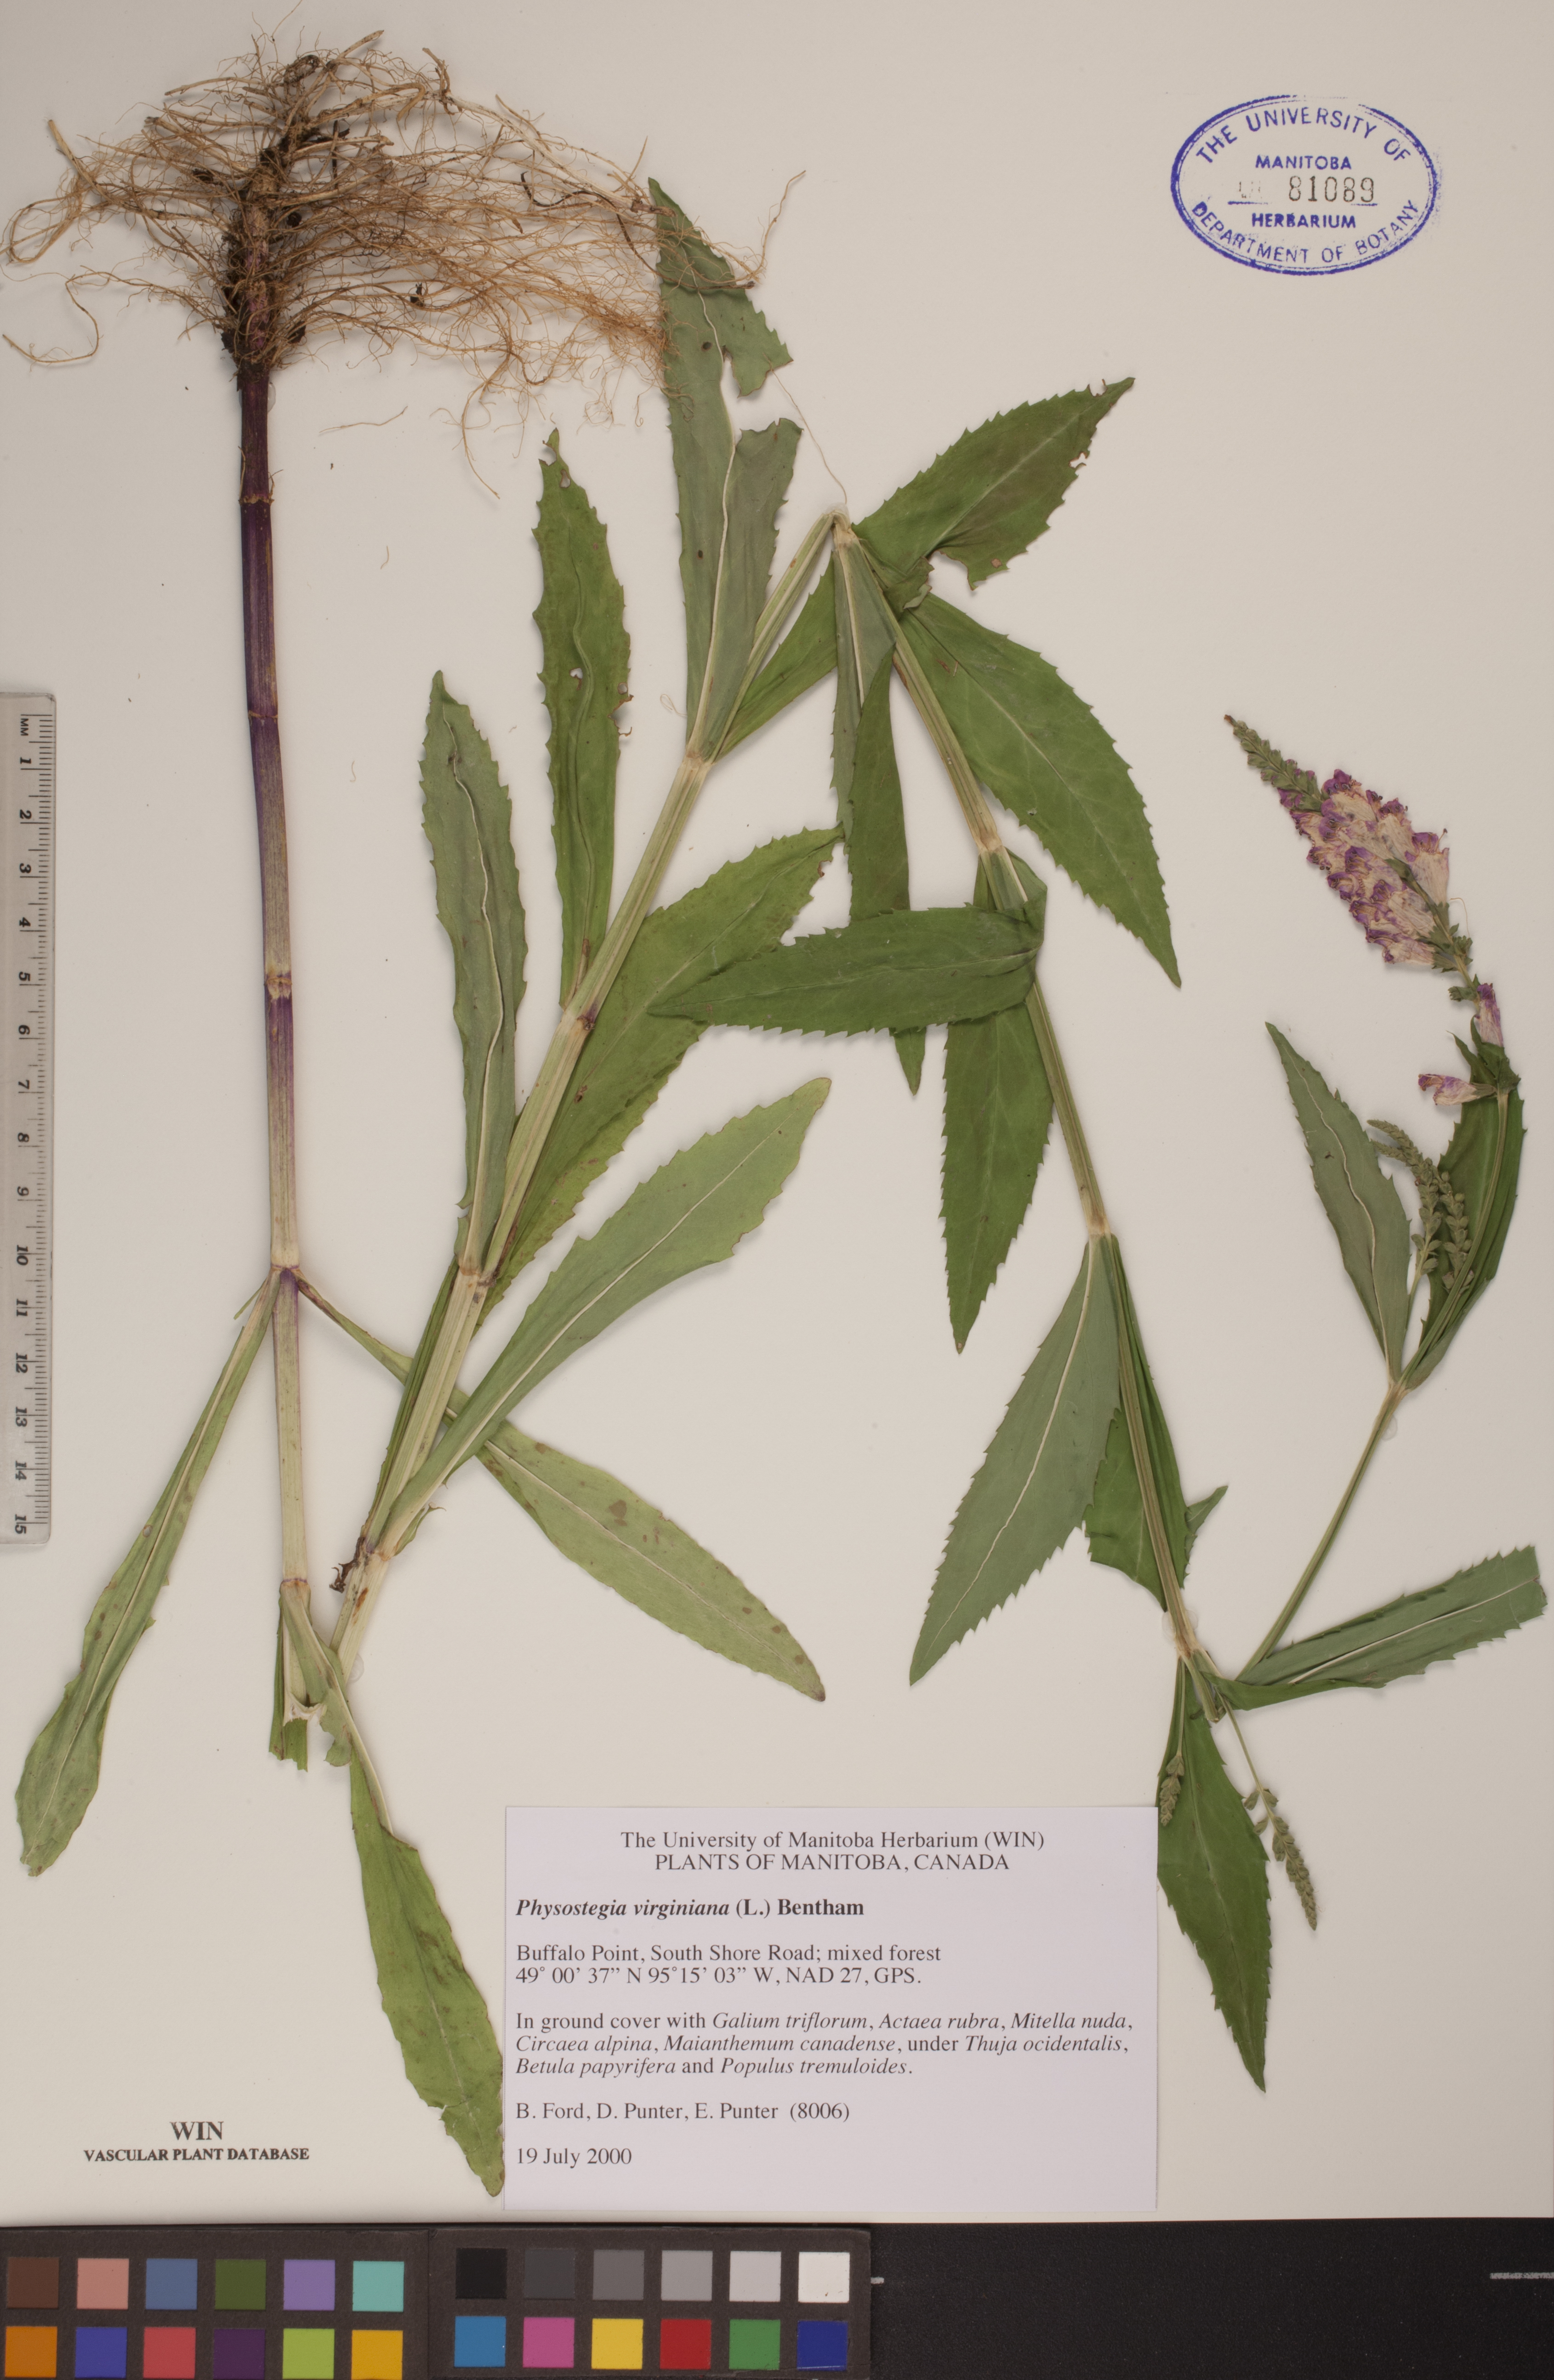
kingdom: Plantae
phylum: Tracheophyta
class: Magnoliopsida
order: Lamiales
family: Lamiaceae
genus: Physostegia
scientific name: Physostegia virginiana
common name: Obedient-plant
